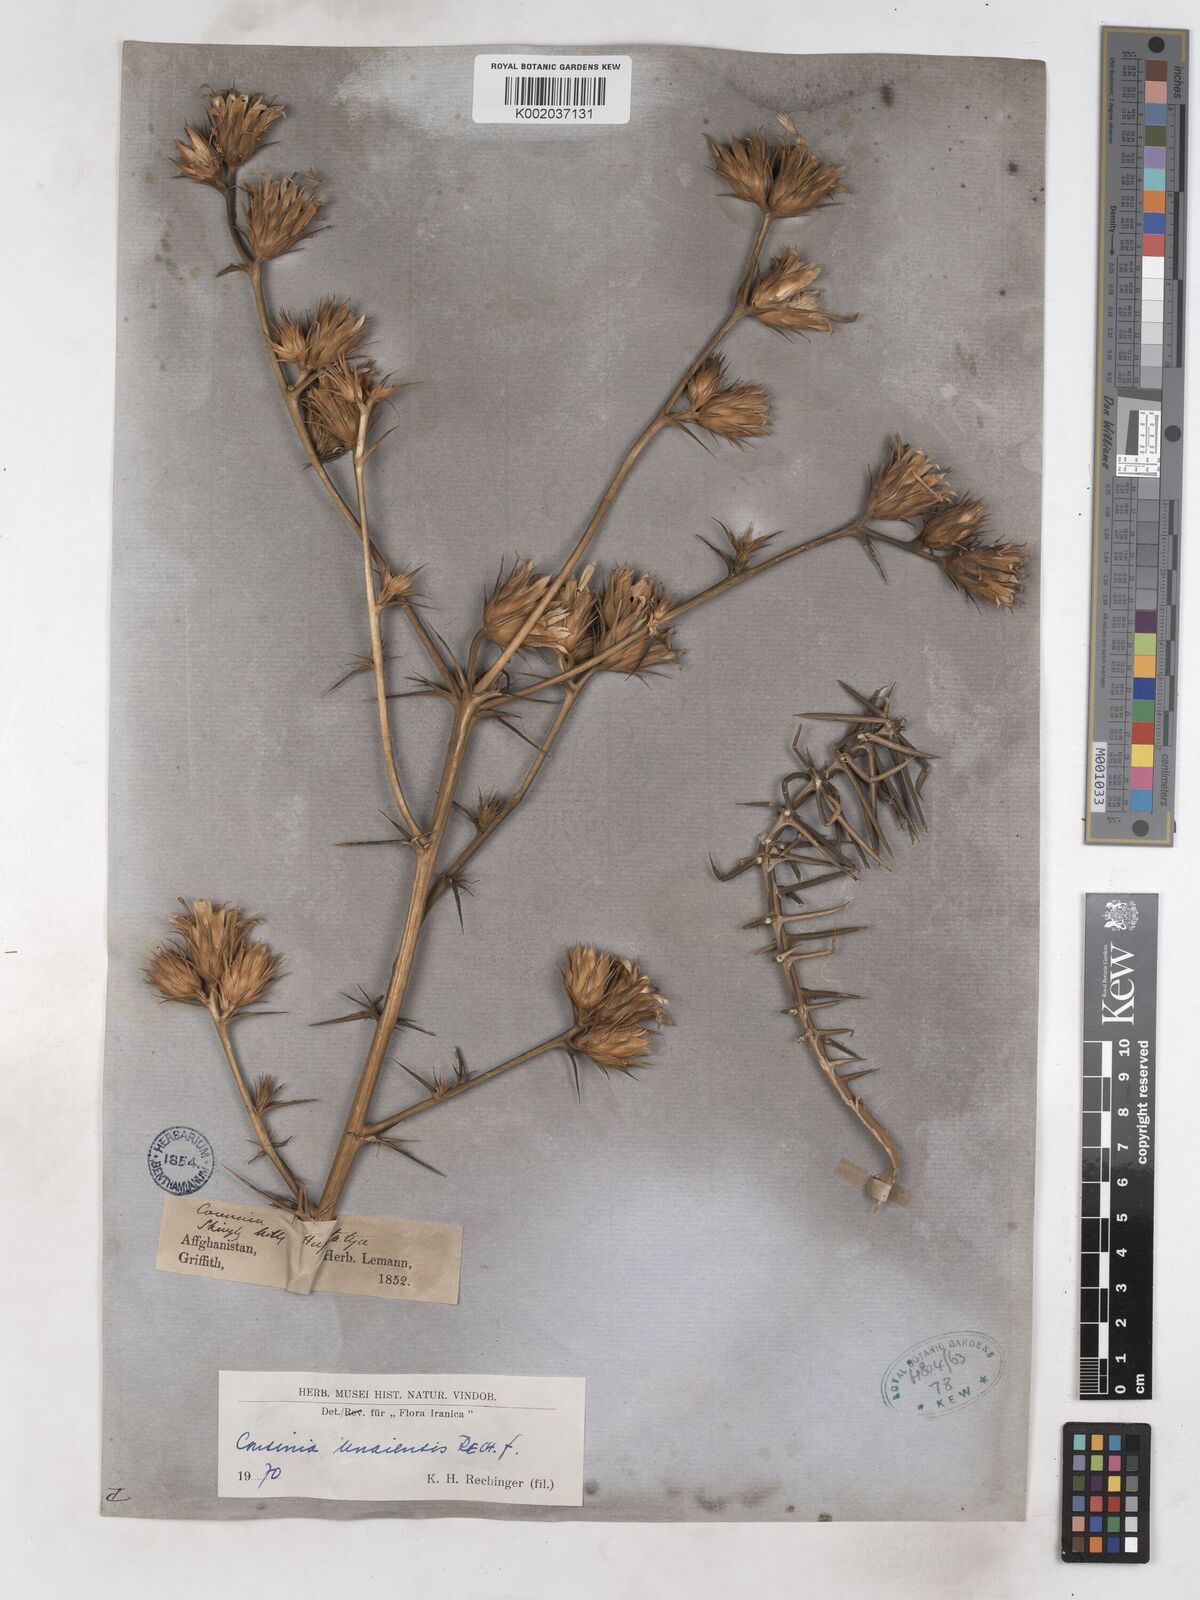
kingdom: Plantae
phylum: Tracheophyta
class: Magnoliopsida
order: Asterales
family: Asteraceae
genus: Cousinia
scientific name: Cousinia
